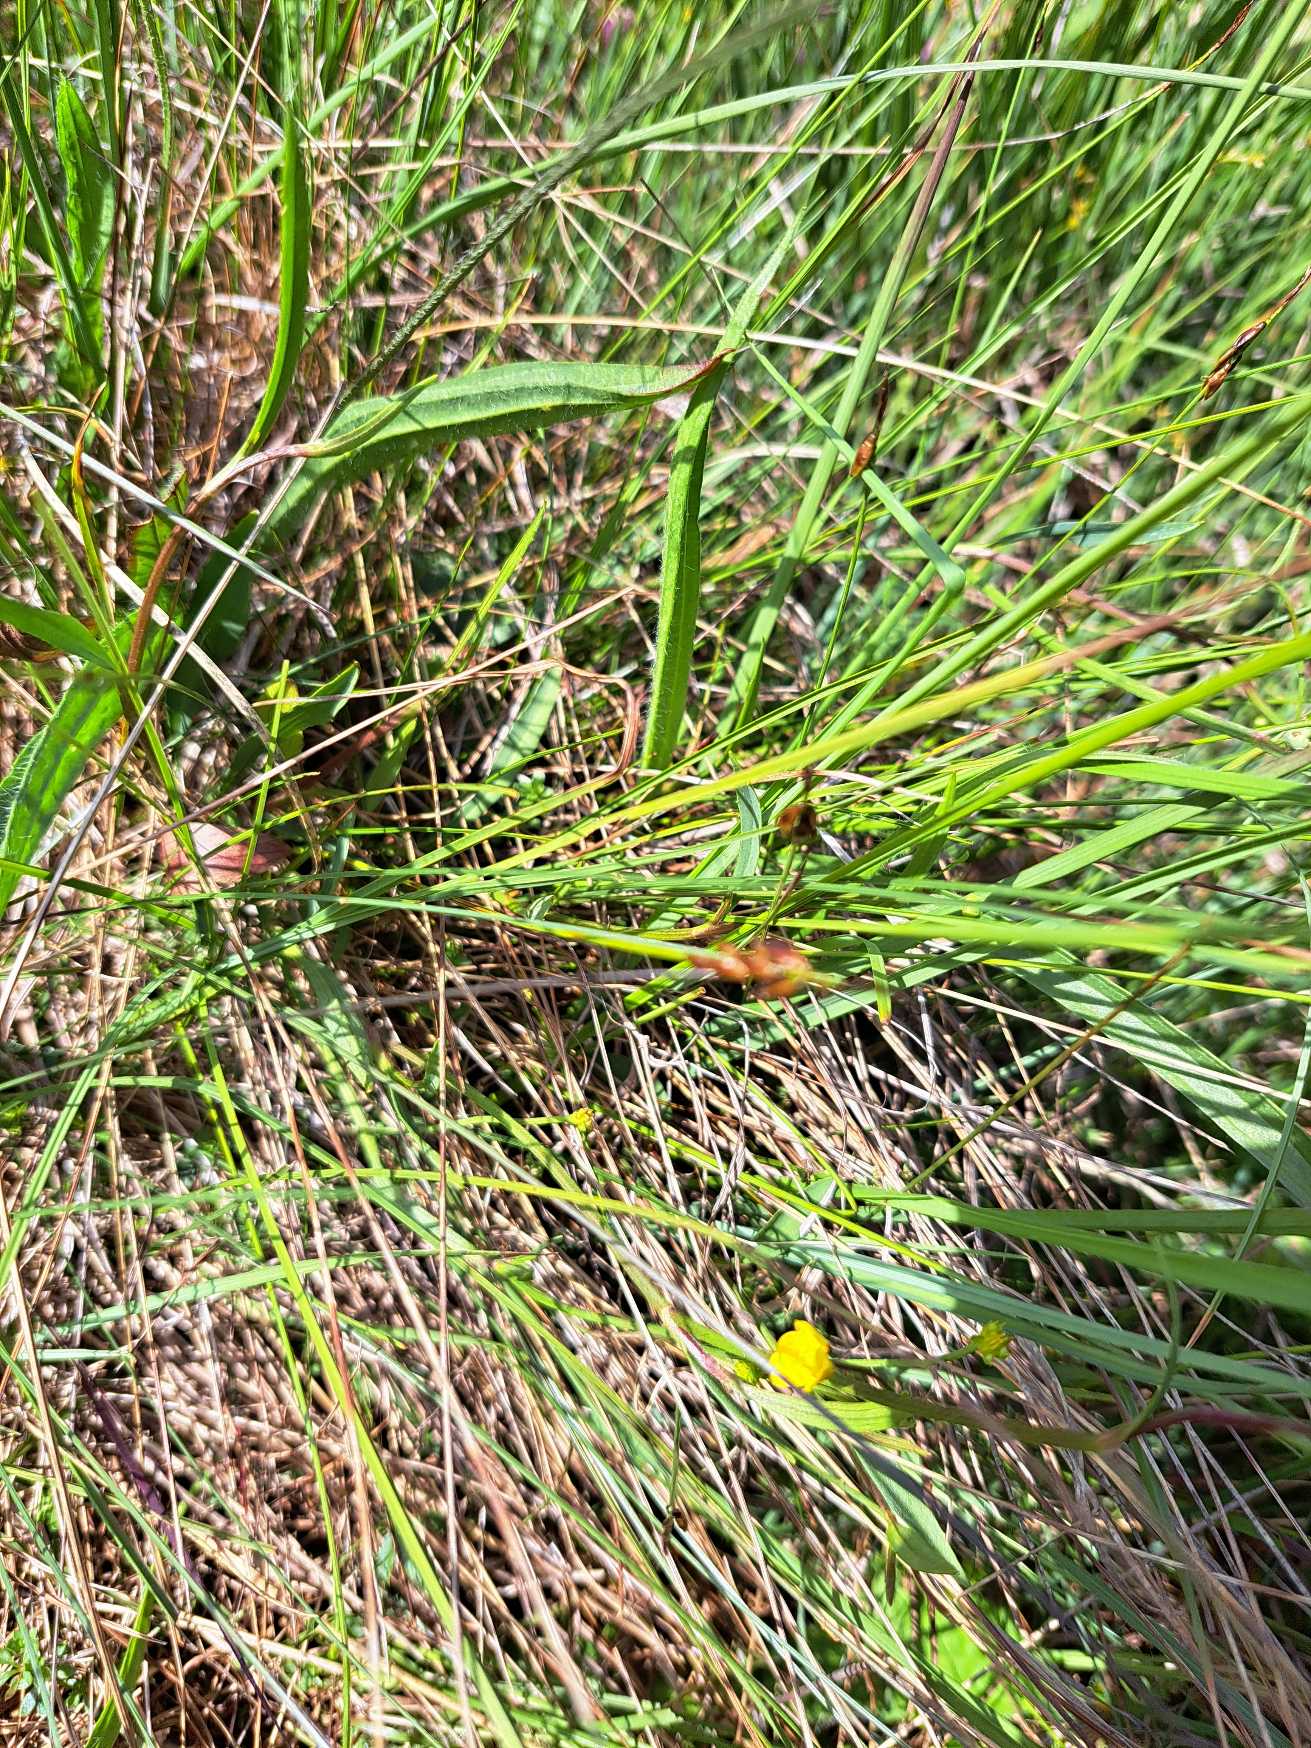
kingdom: Plantae
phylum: Tracheophyta
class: Liliopsida
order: Poales
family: Cyperaceae
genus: Carex
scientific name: Carex pulicaris
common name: Loppe-star
